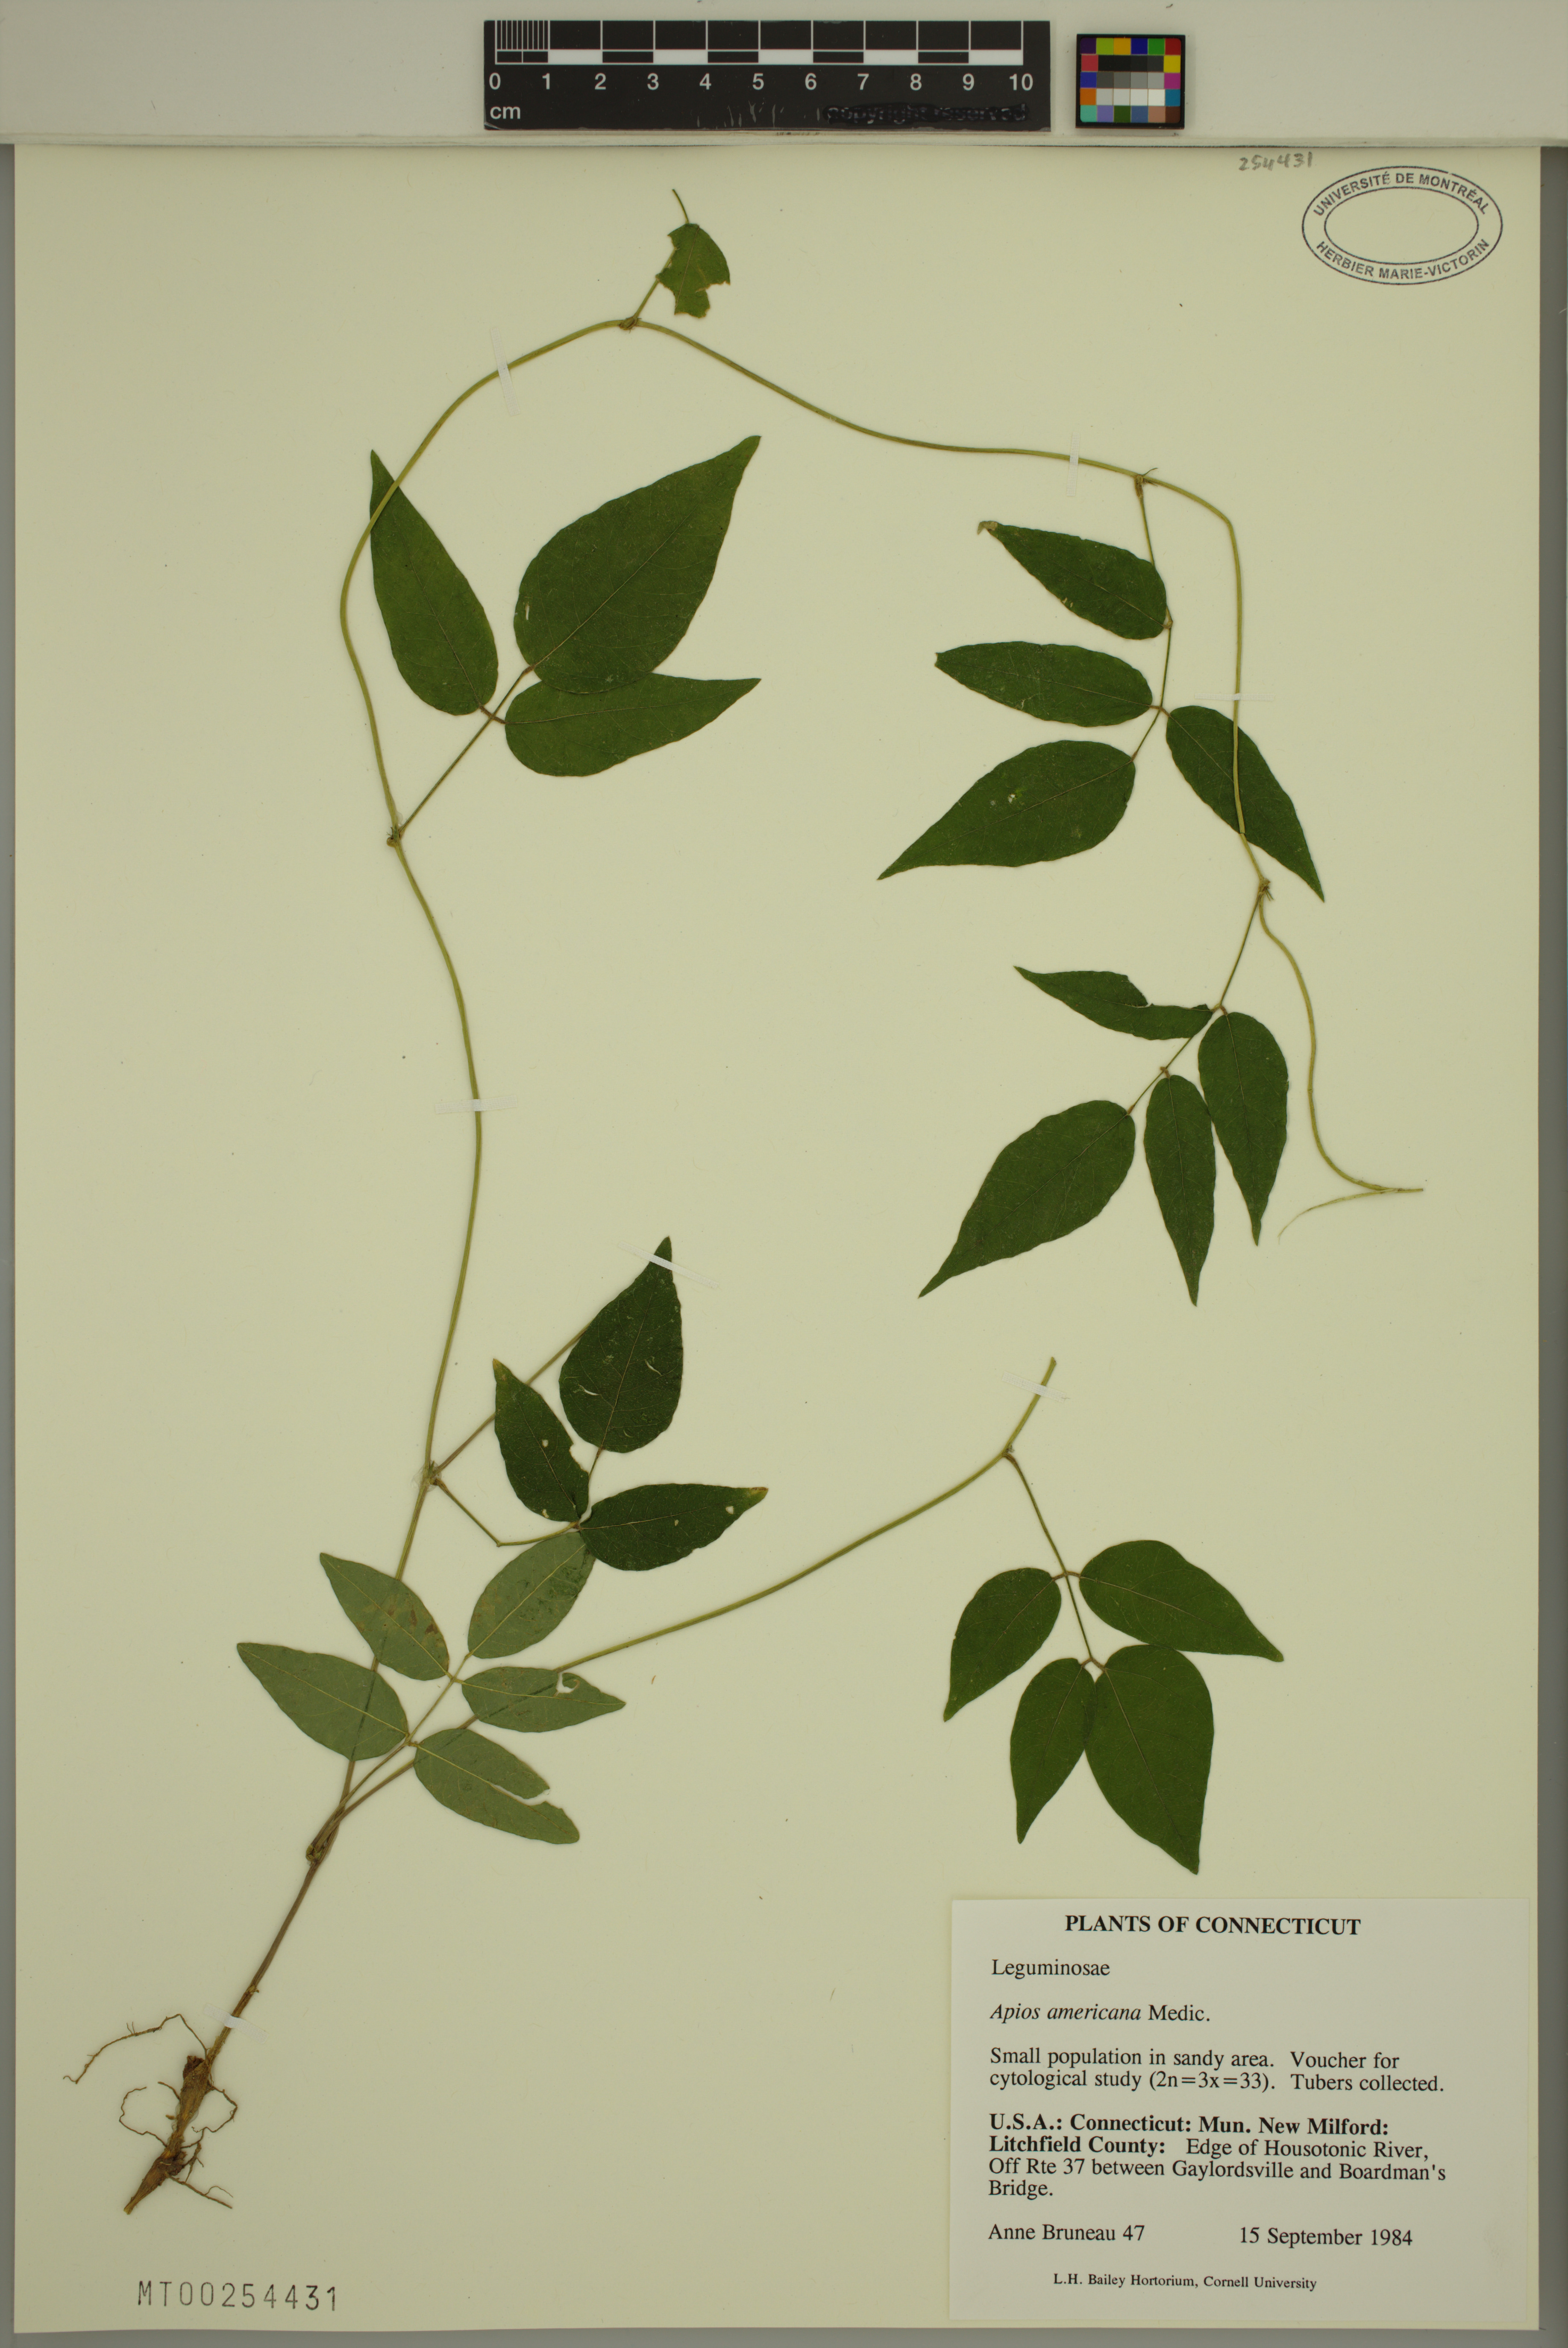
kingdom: Plantae
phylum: Tracheophyta
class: Magnoliopsida
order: Fabales
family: Fabaceae
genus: Apios
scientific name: Apios americana
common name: American potato-bean
